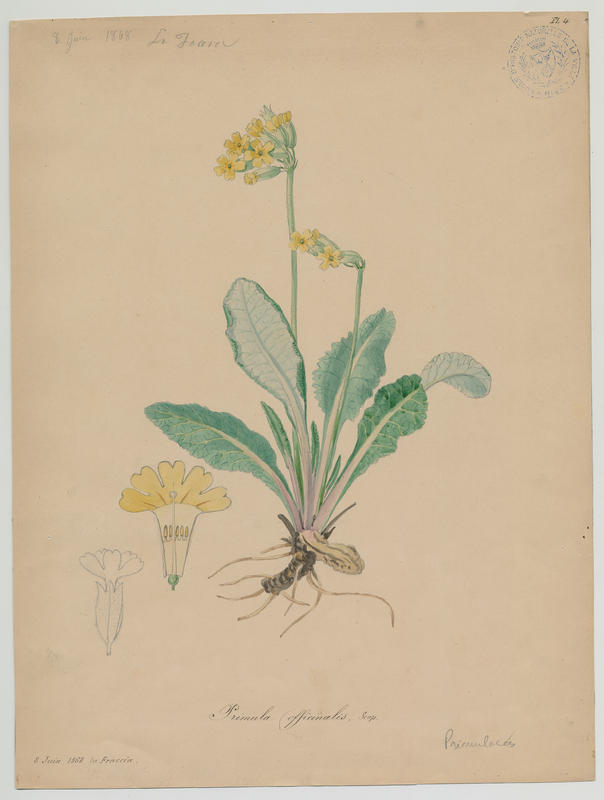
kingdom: Plantae
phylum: Tracheophyta
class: Magnoliopsida
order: Ericales
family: Primulaceae
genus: Primula
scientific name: Primula veris
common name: Cowslip
